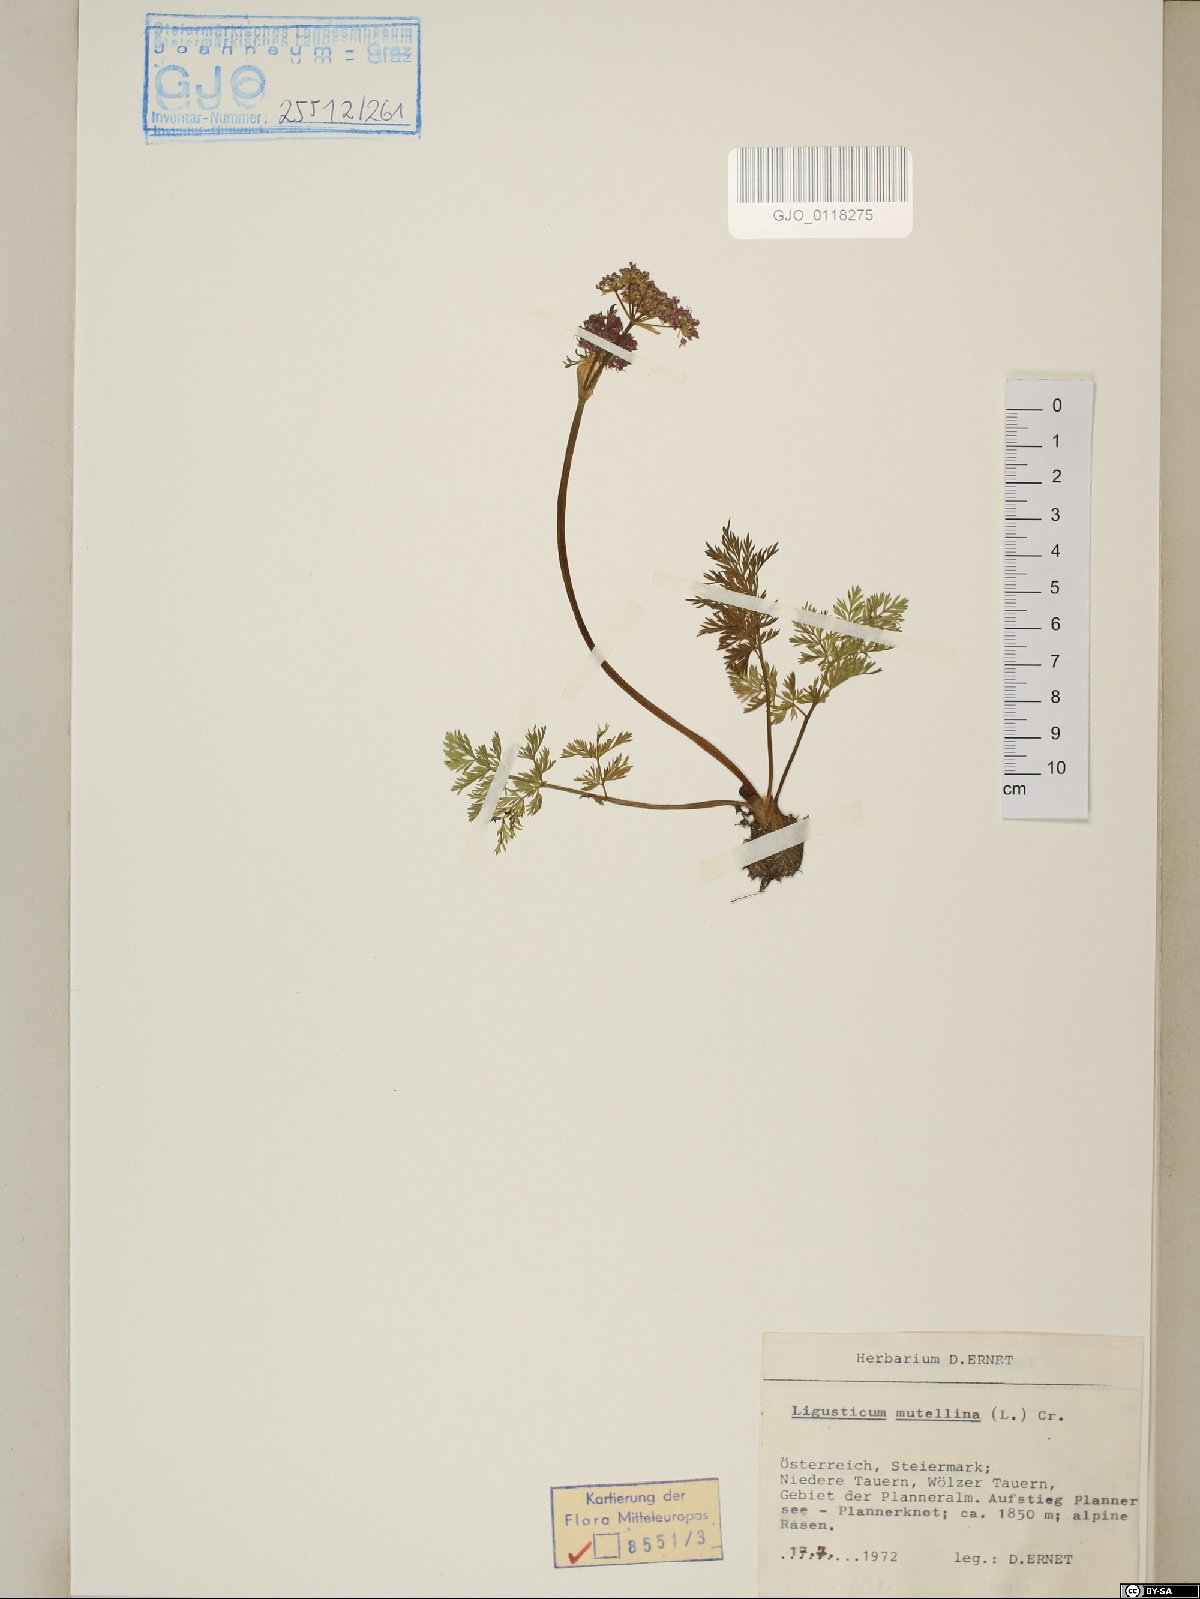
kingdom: Plantae
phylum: Tracheophyta
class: Magnoliopsida
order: Apiales
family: Apiaceae
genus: Mutellina
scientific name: Mutellina adonidifolia
